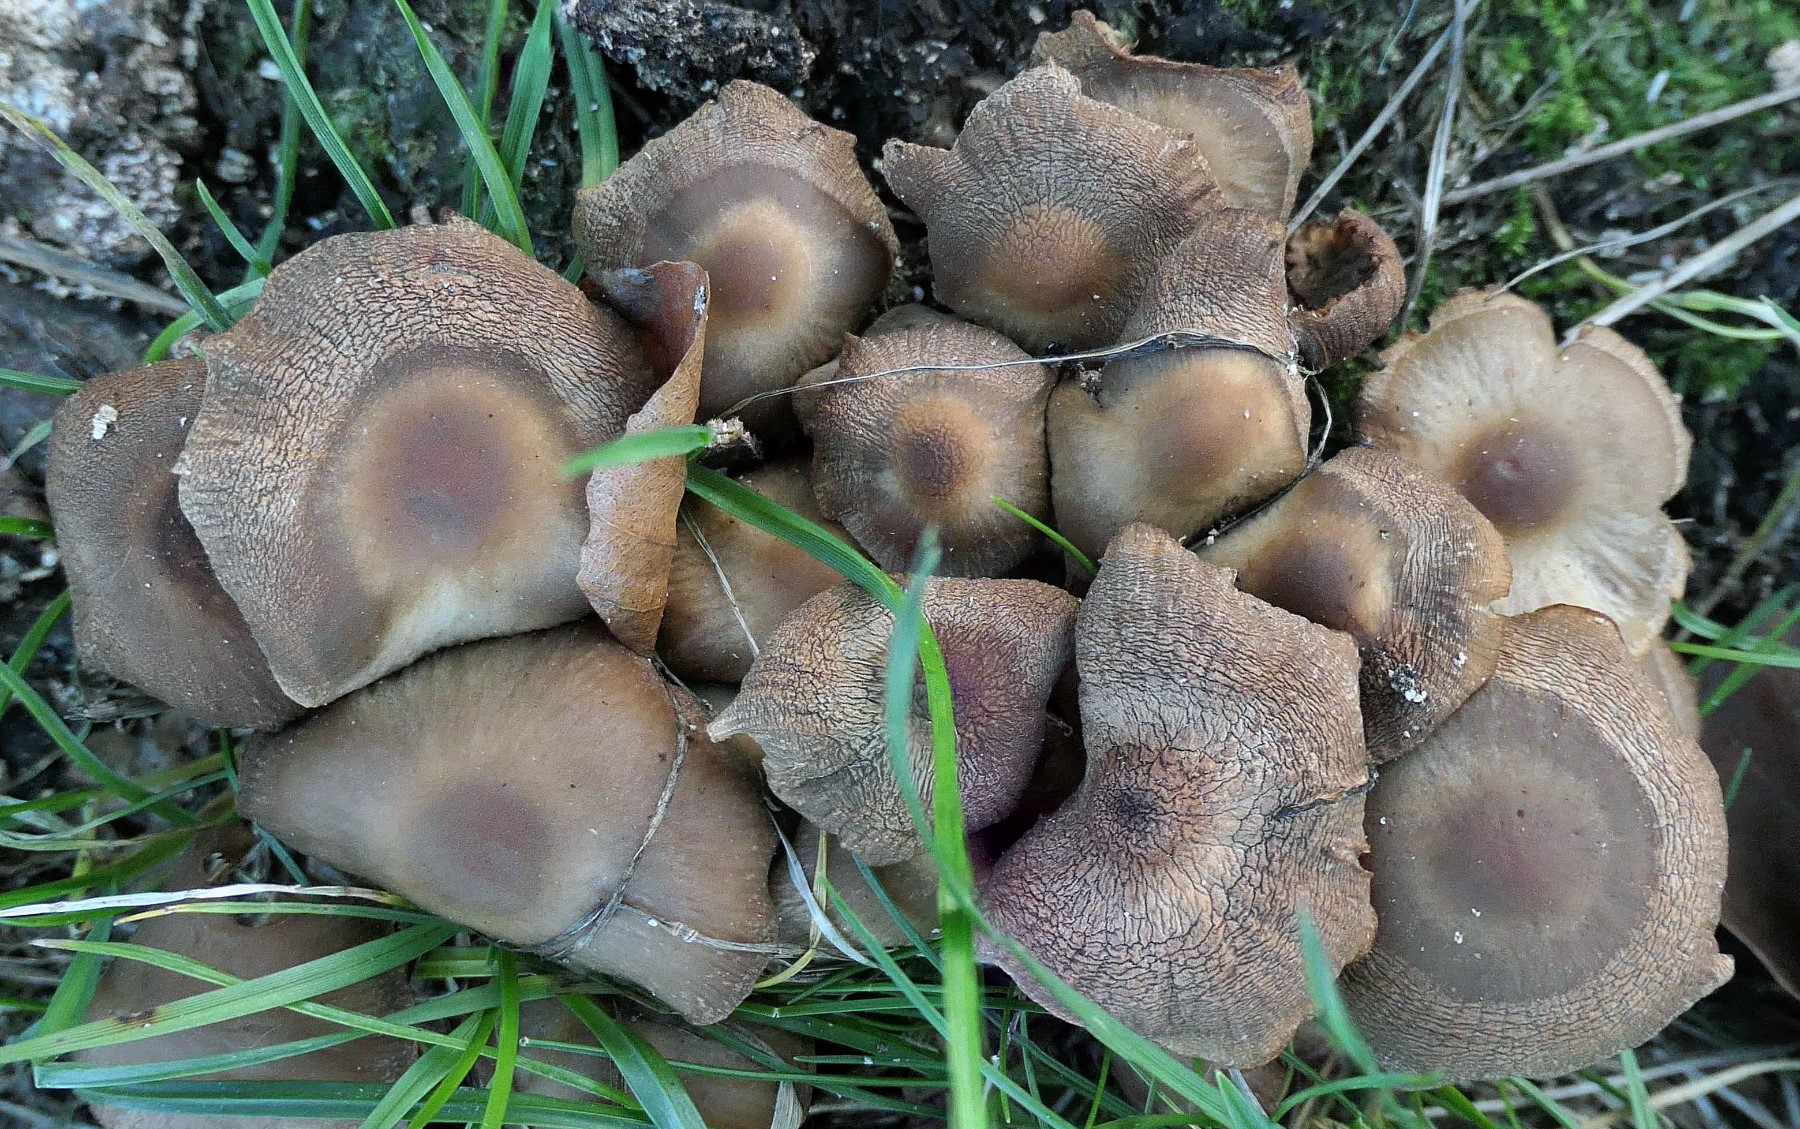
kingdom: Fungi
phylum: Basidiomycota
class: Agaricomycetes
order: Agaricales
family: Psathyrellaceae
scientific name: Psathyrellaceae
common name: mørkhatfamilien
